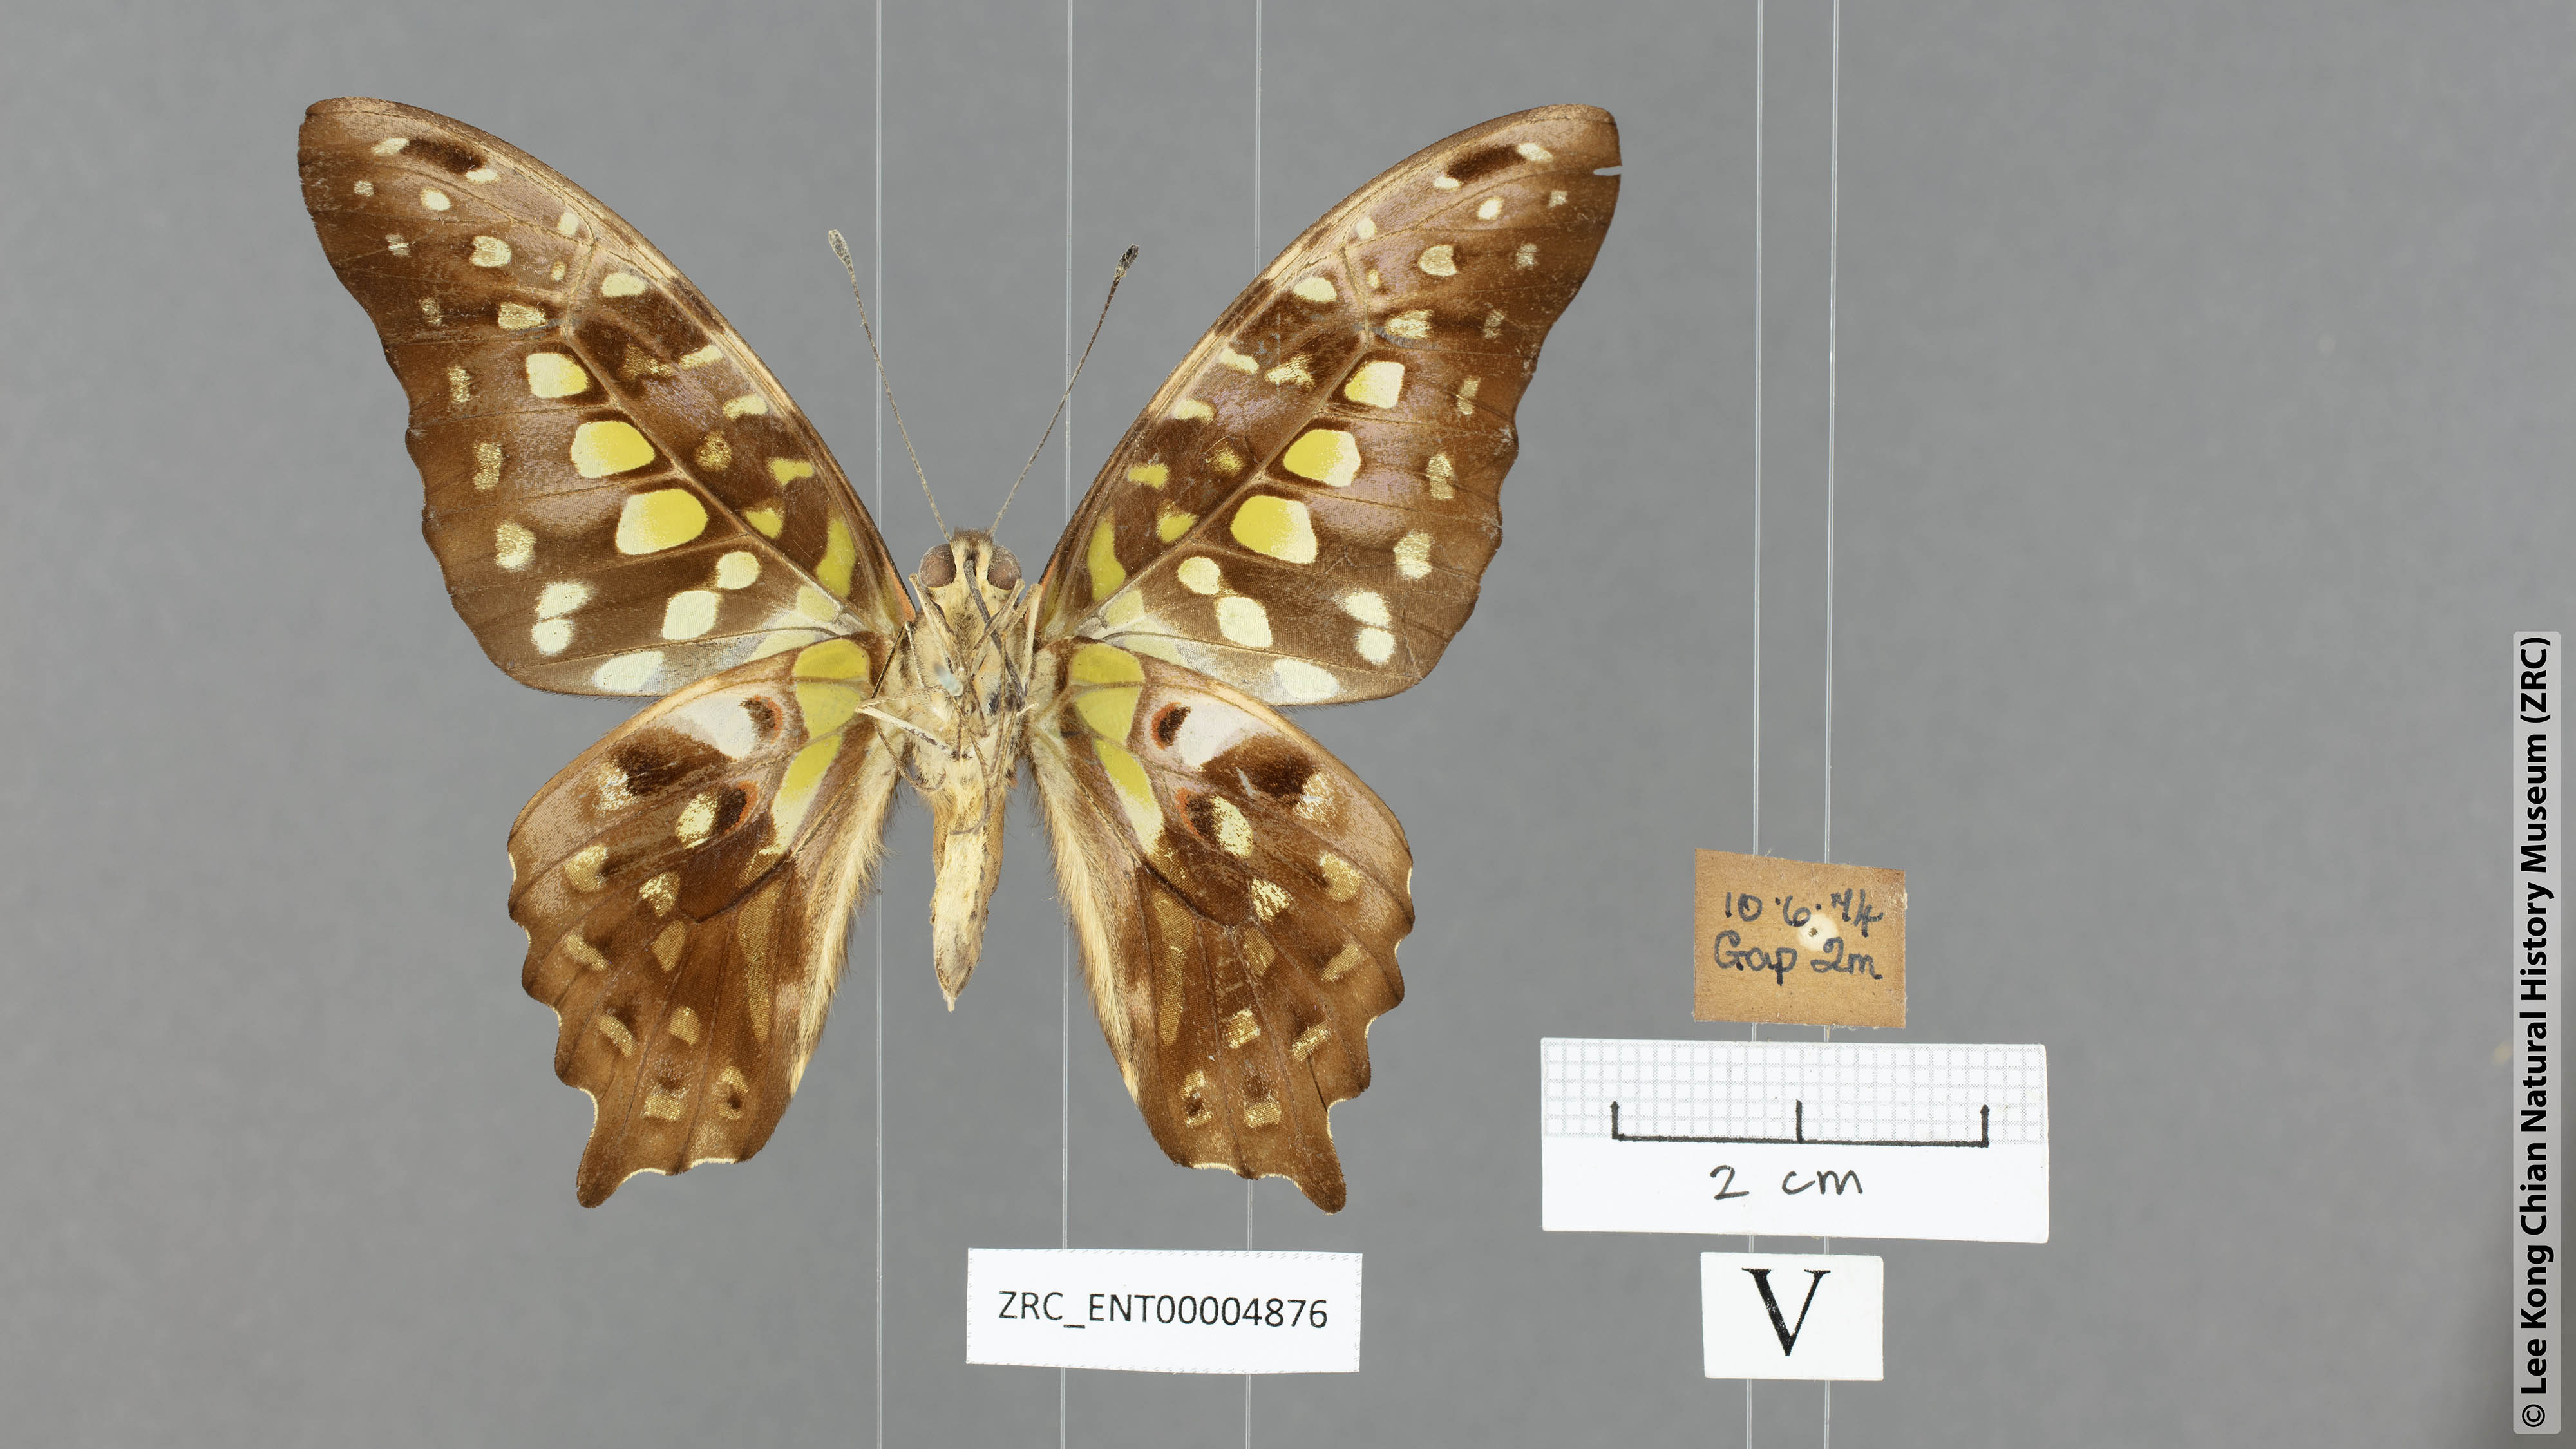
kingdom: Animalia
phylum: Arthropoda
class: Insecta
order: Lepidoptera
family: Papilionidae
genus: Graphium
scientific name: Graphium agamemnon
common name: Tailed jay
